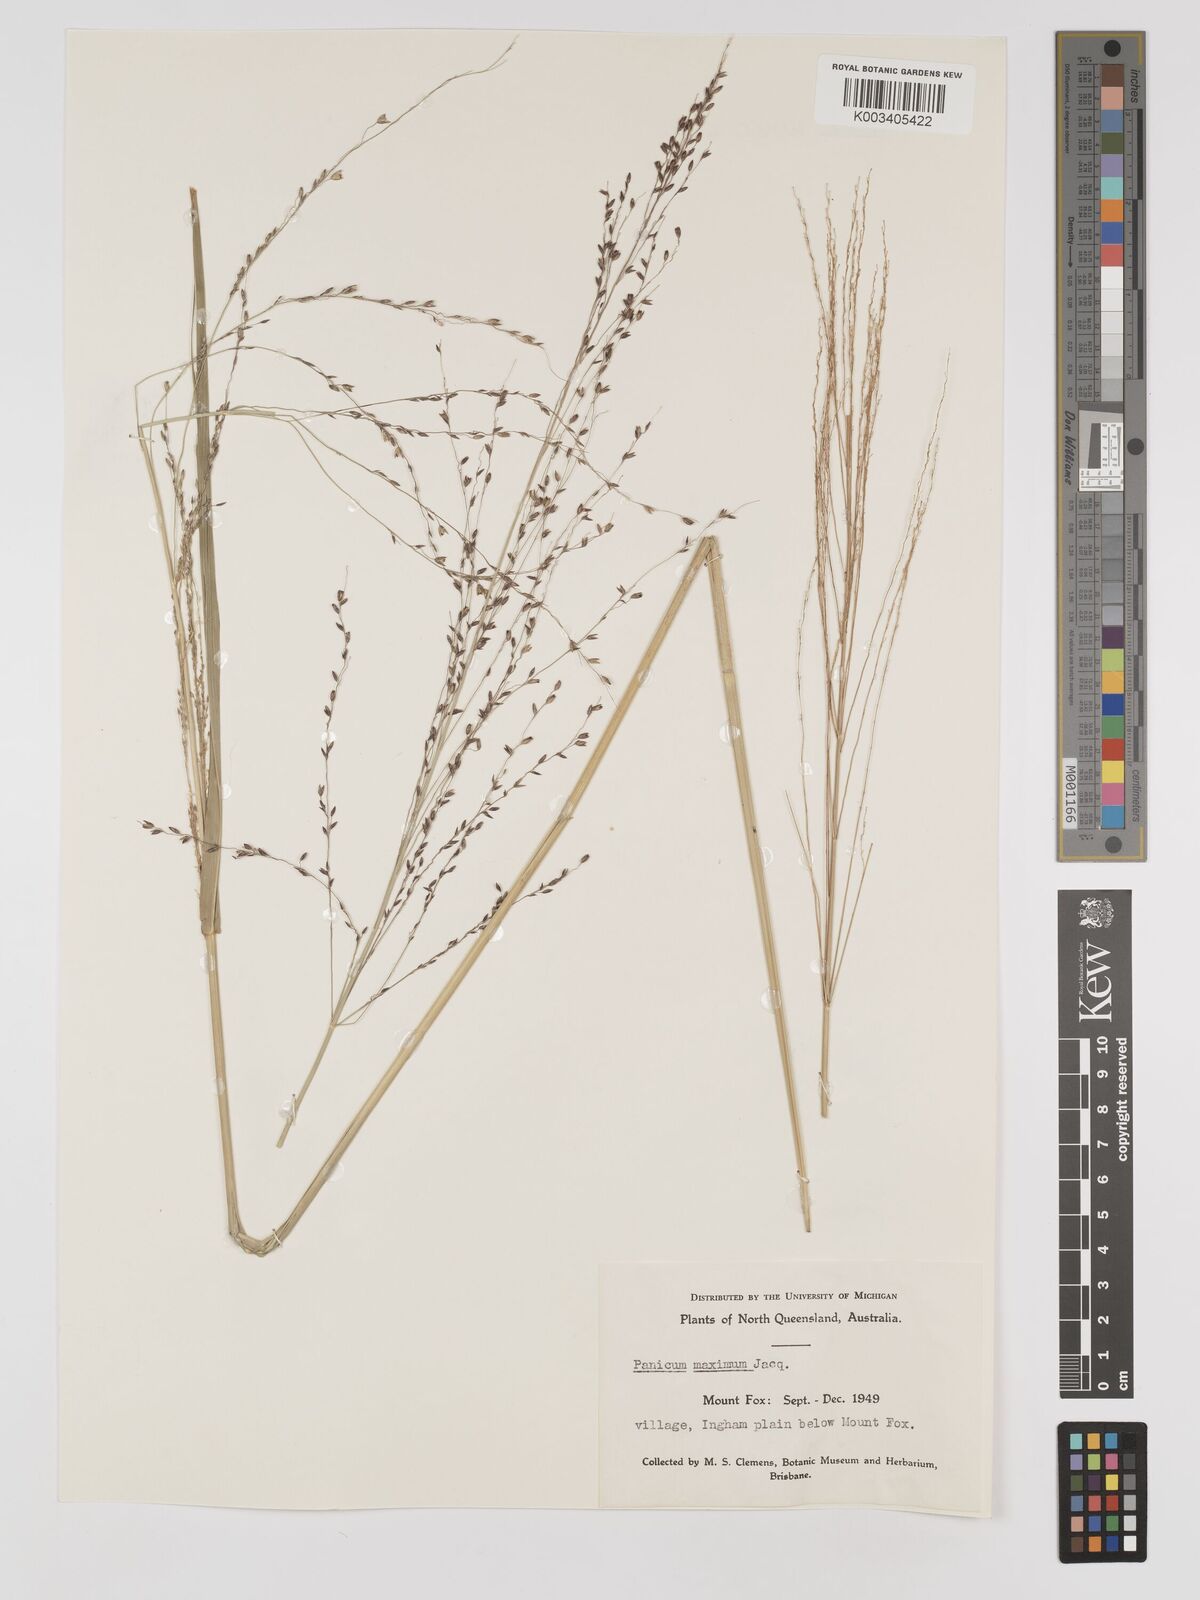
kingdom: Plantae
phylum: Tracheophyta
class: Liliopsida
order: Poales
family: Poaceae
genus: Megathyrsus
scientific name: Megathyrsus maximus
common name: Guineagrass
